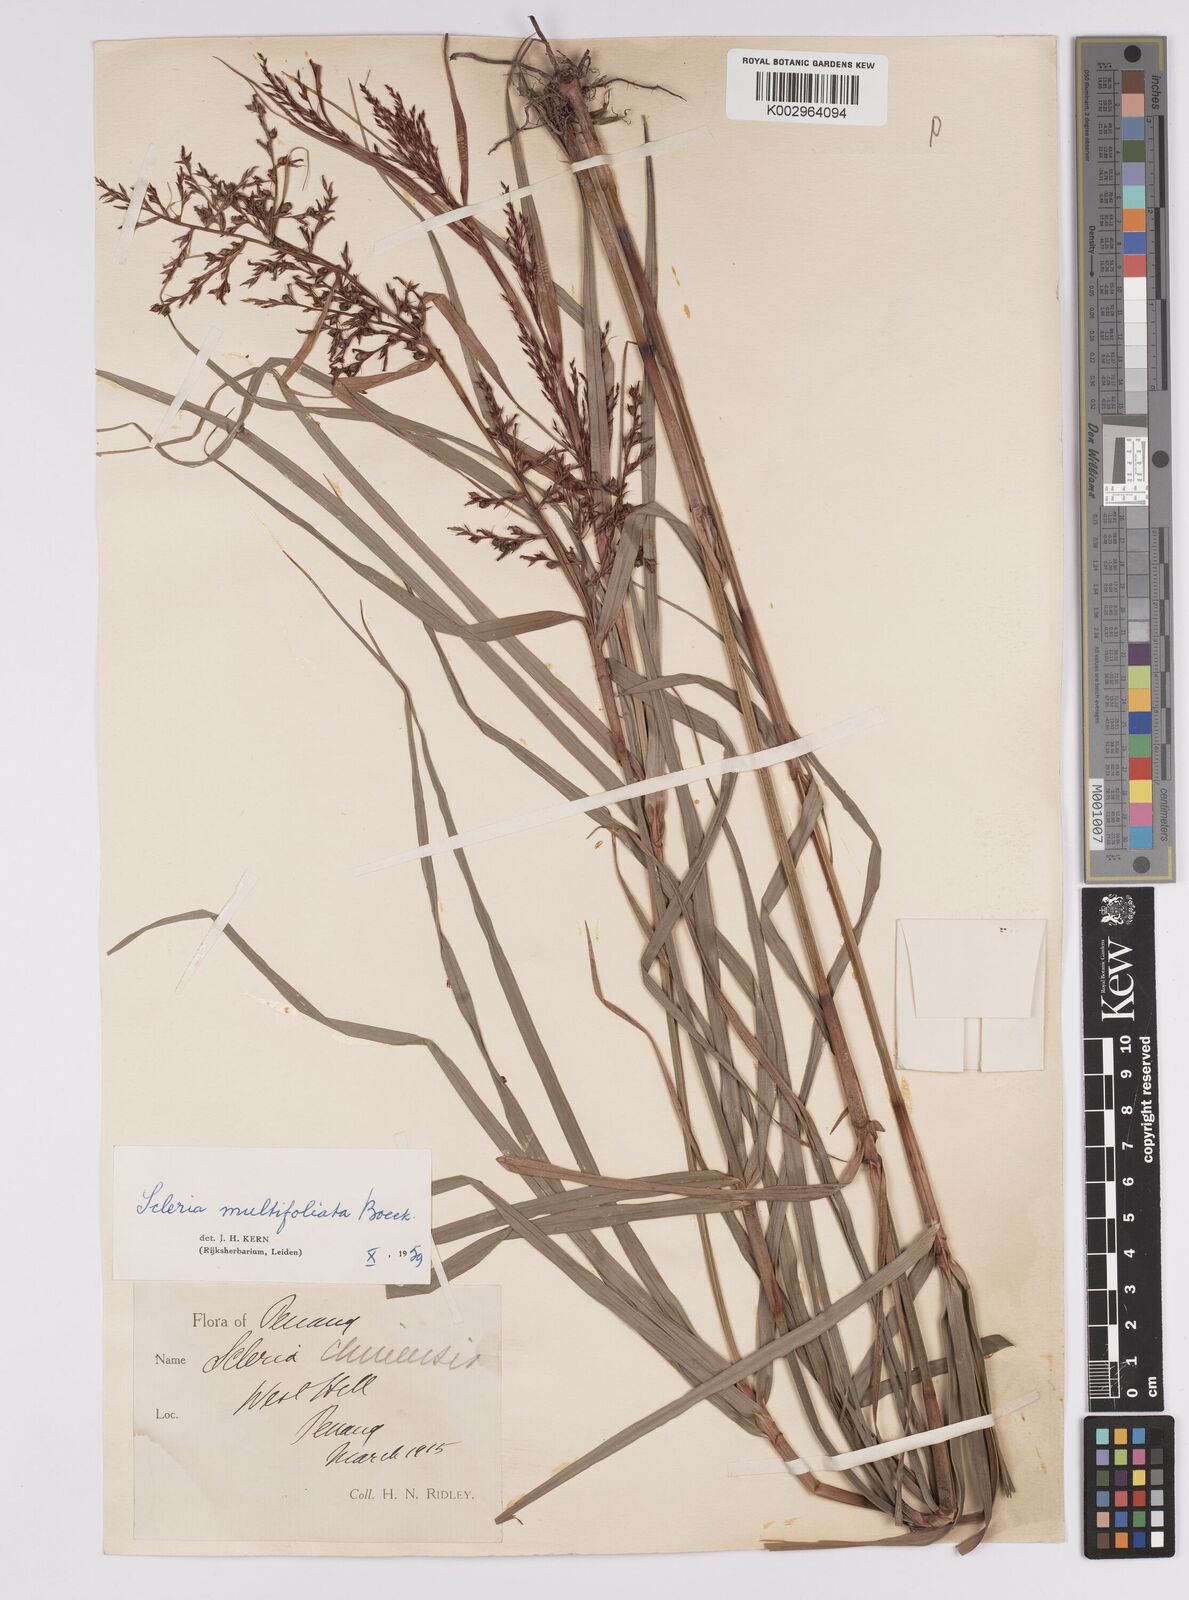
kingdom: Plantae
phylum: Tracheophyta
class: Liliopsida
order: Poales
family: Cyperaceae
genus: Scleria
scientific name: Scleria purpurascens
